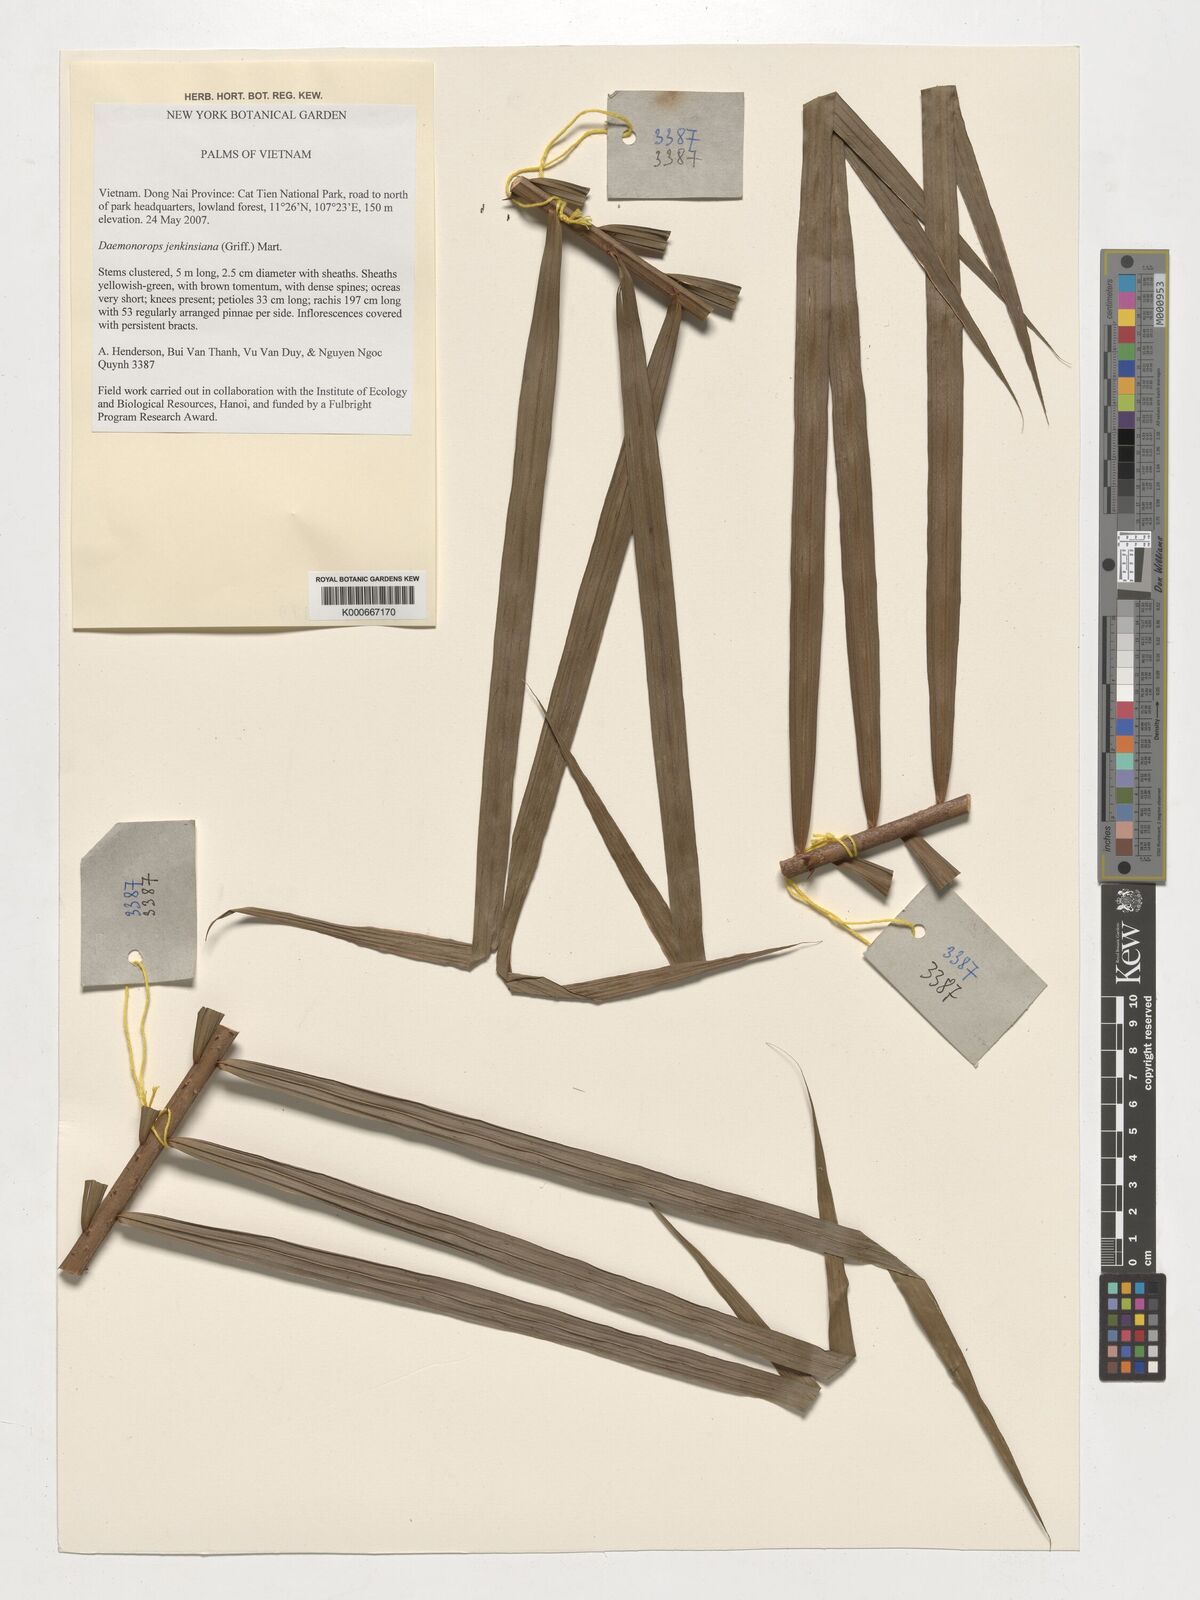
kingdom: Plantae
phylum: Tracheophyta
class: Liliopsida
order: Arecales
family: Arecaceae
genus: Calamus
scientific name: Calamus melanochaetes
